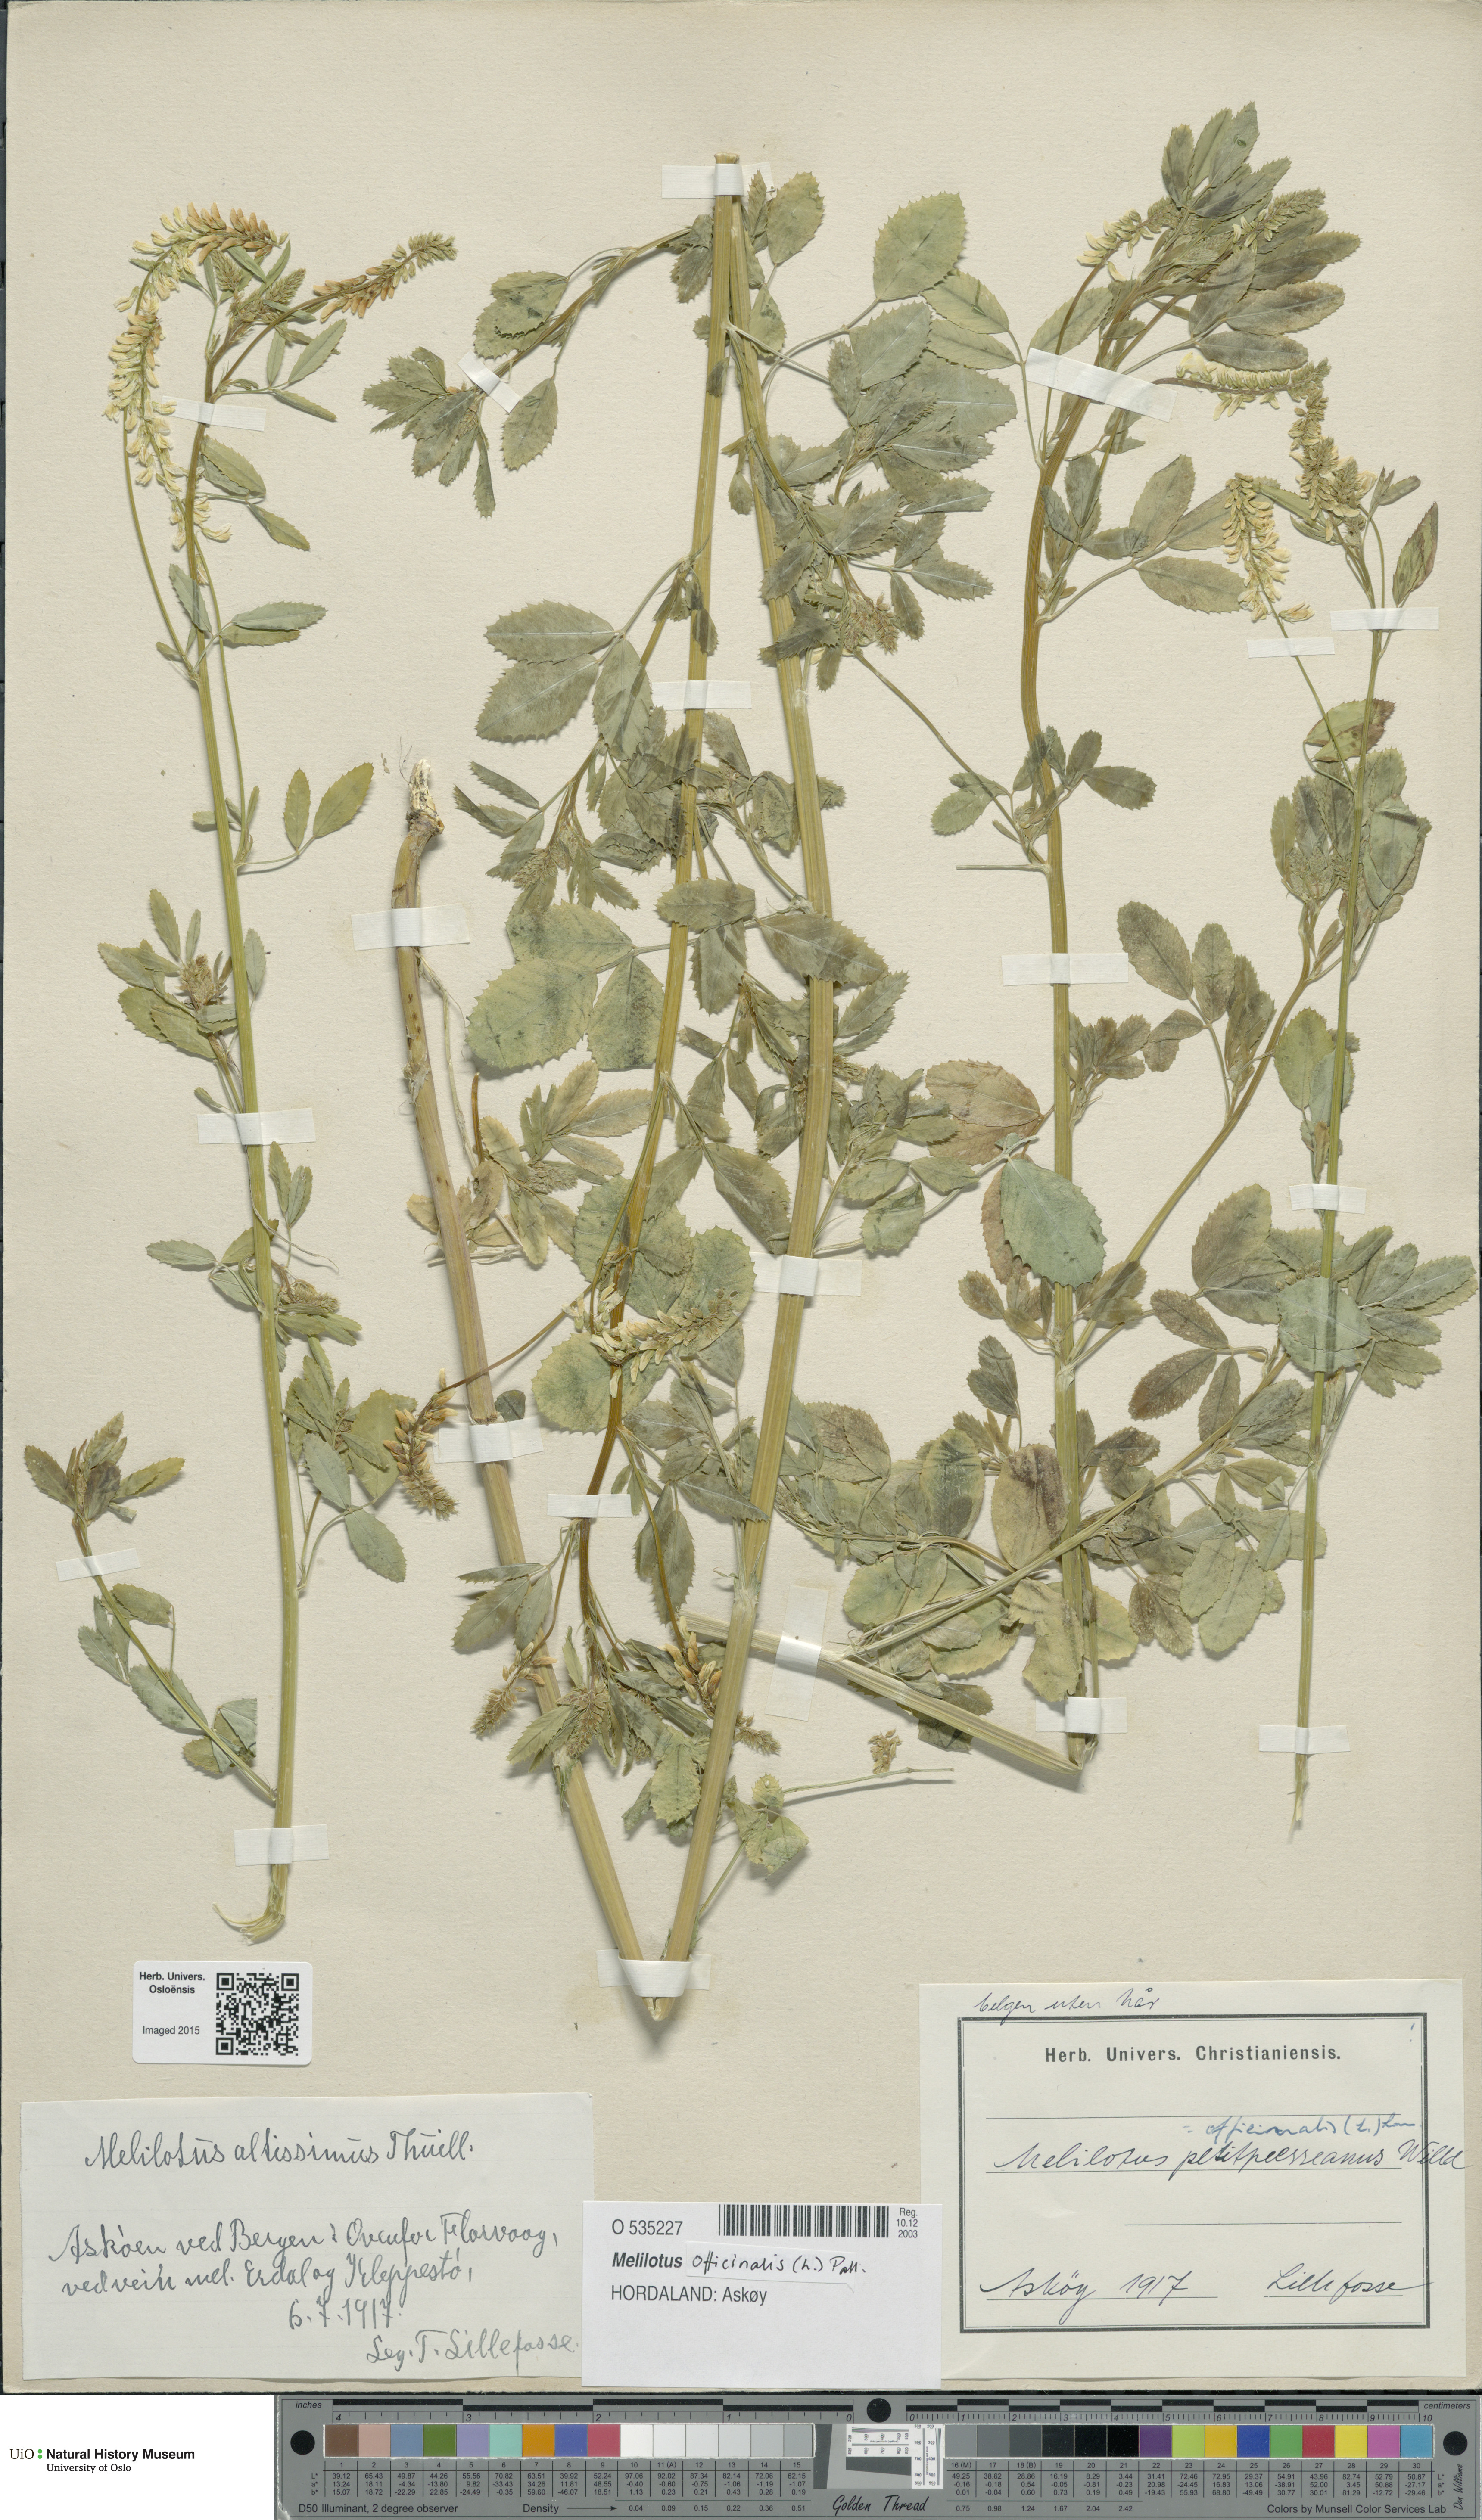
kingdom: Plantae
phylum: Tracheophyta
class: Magnoliopsida
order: Fabales
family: Fabaceae
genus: Melilotus
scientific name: Melilotus officinalis
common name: Sweetclover
